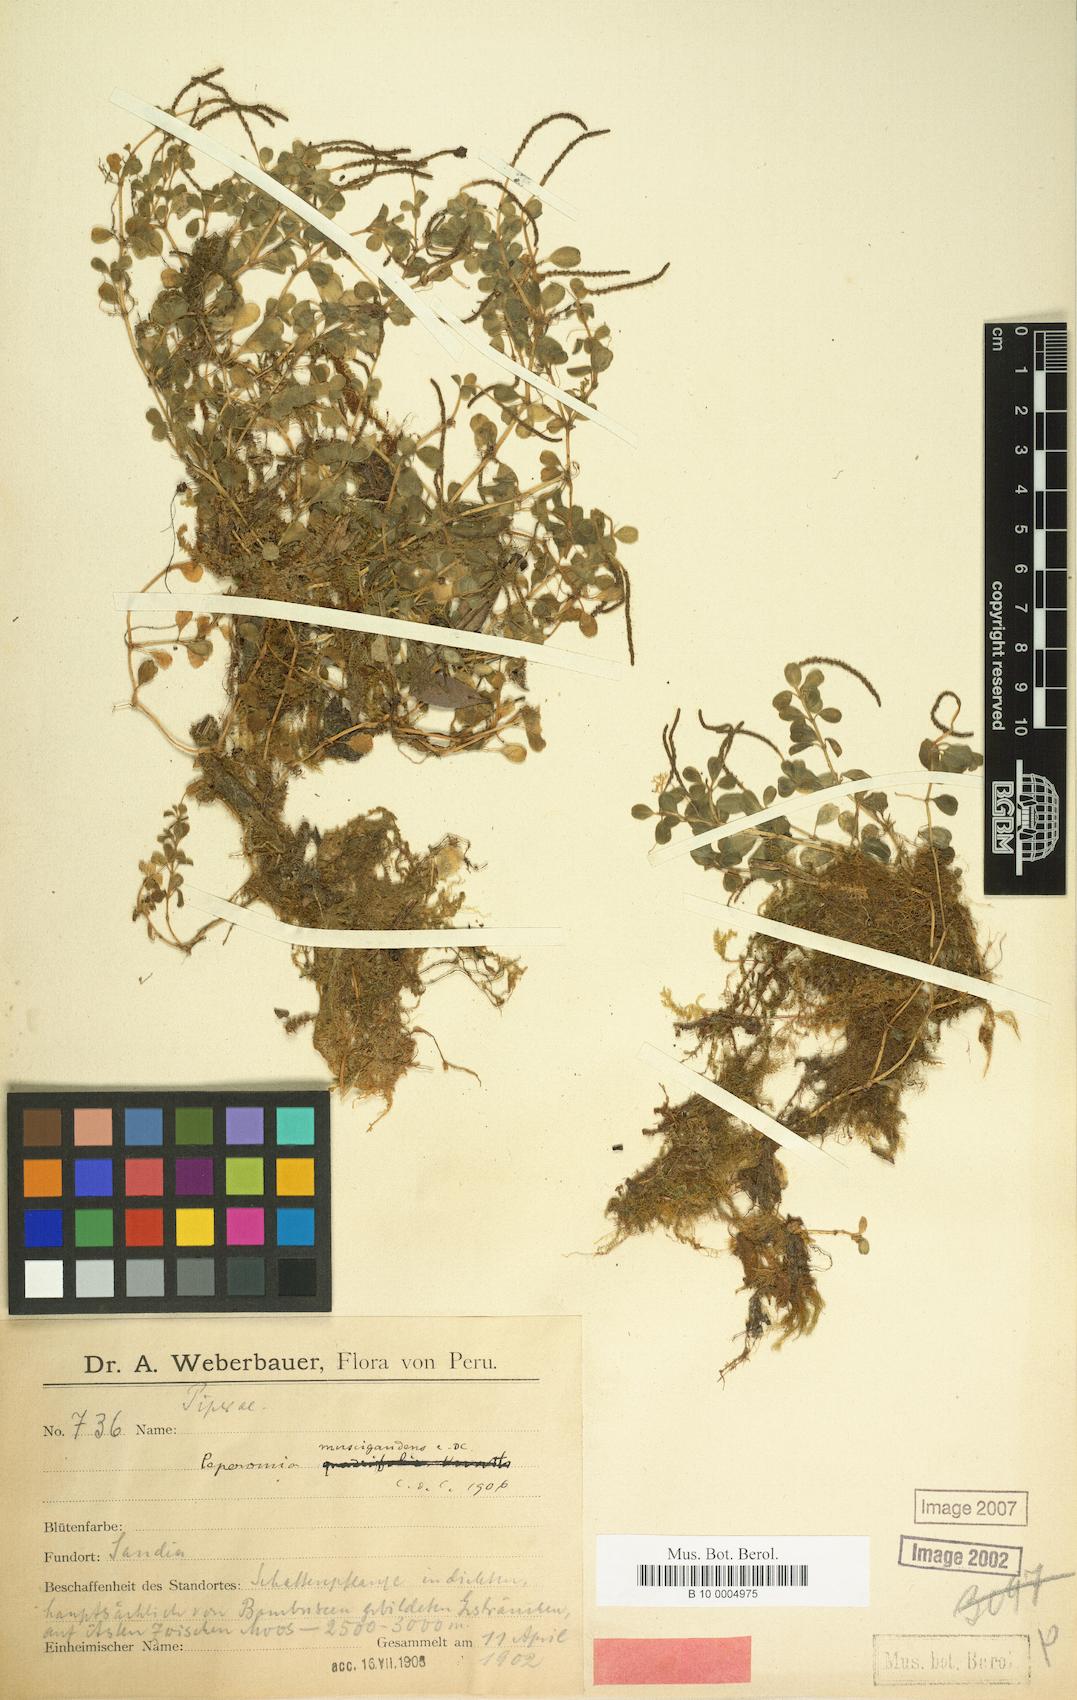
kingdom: Plantae
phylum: Tracheophyta
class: Magnoliopsida
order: Piperales
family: Piperaceae
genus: Peperomia
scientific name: Peperomia muscigaudens
